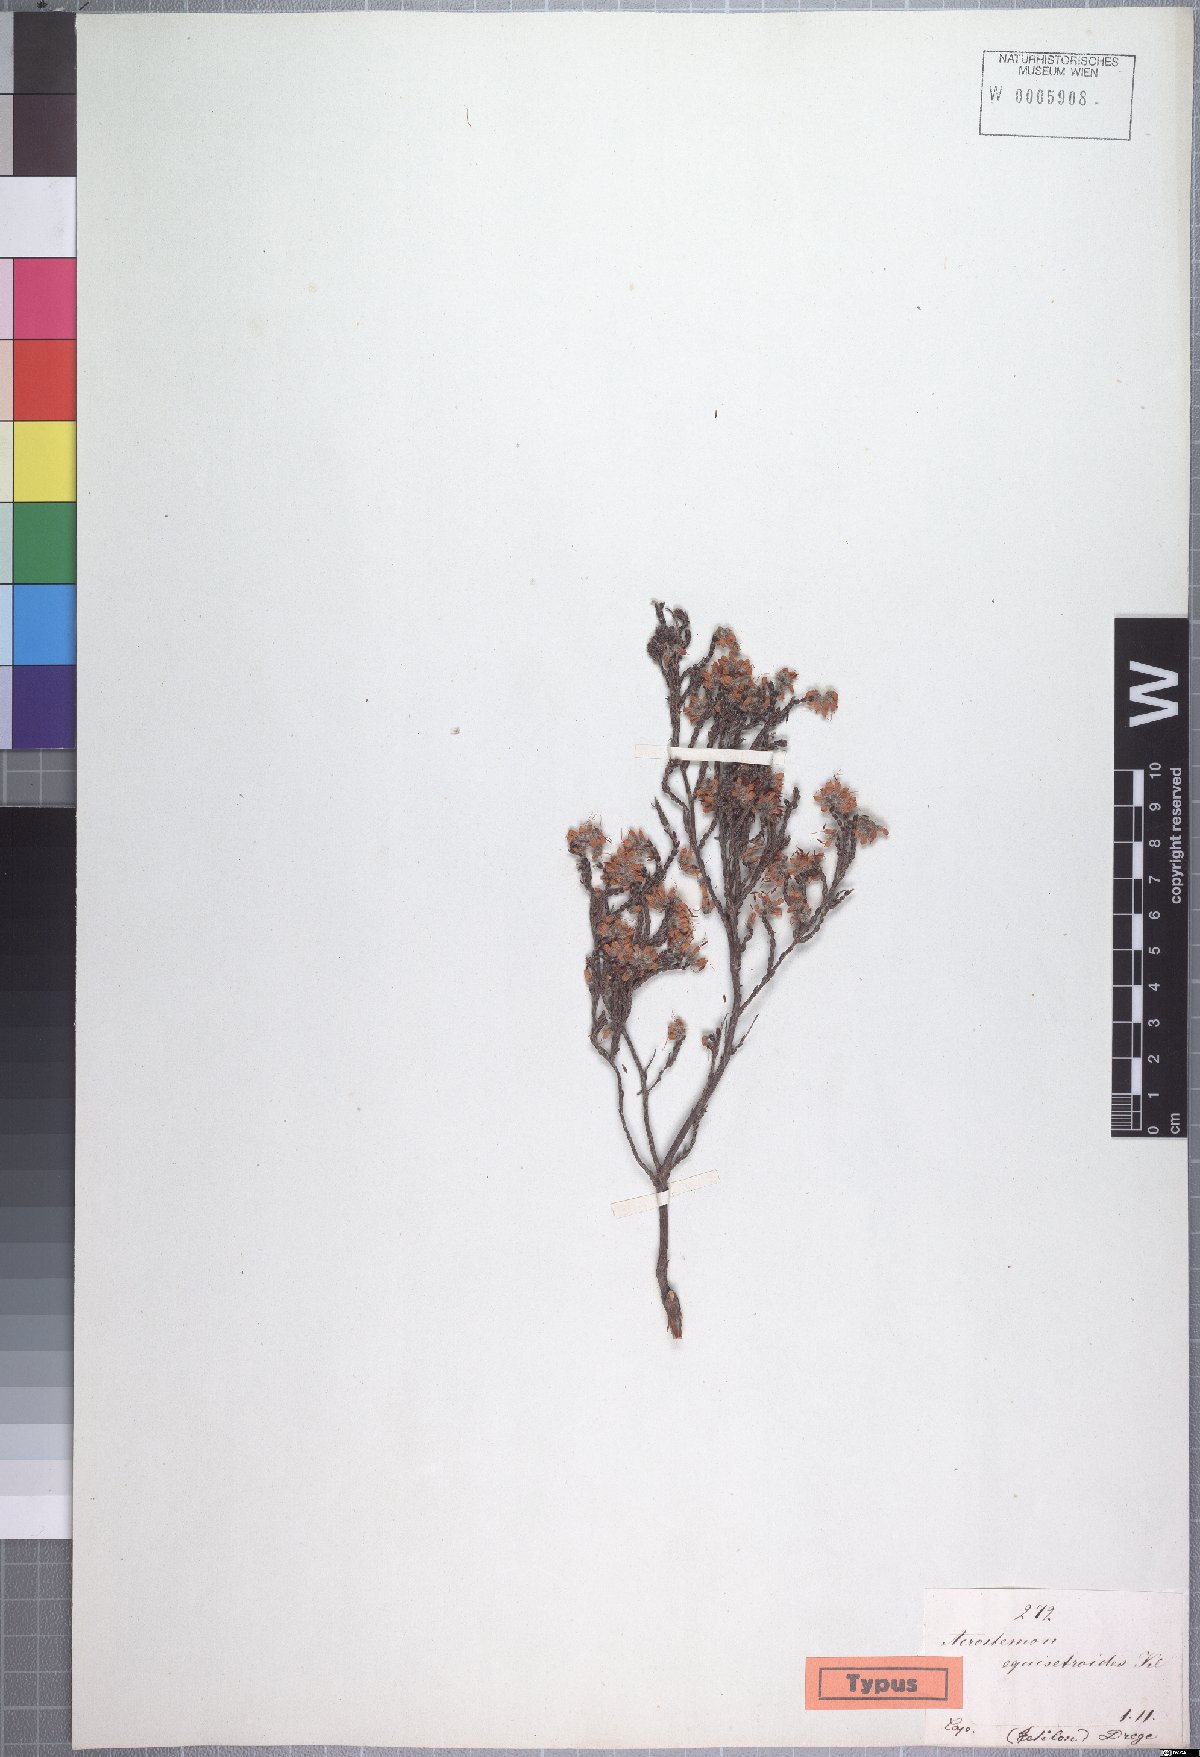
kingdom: Plantae
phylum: Tracheophyta
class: Magnoliopsida
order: Ericales
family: Ericaceae
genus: Erica
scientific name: Erica eriocephala
